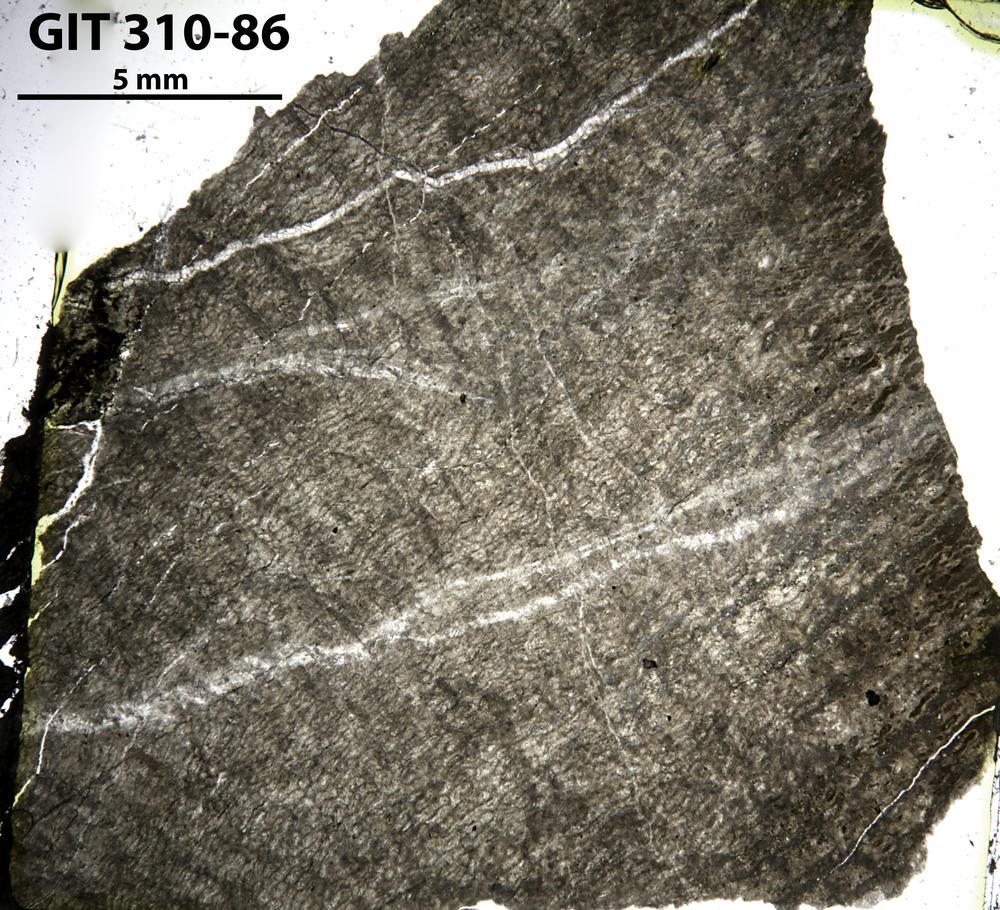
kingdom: Animalia
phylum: Porifera
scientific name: Porifera
